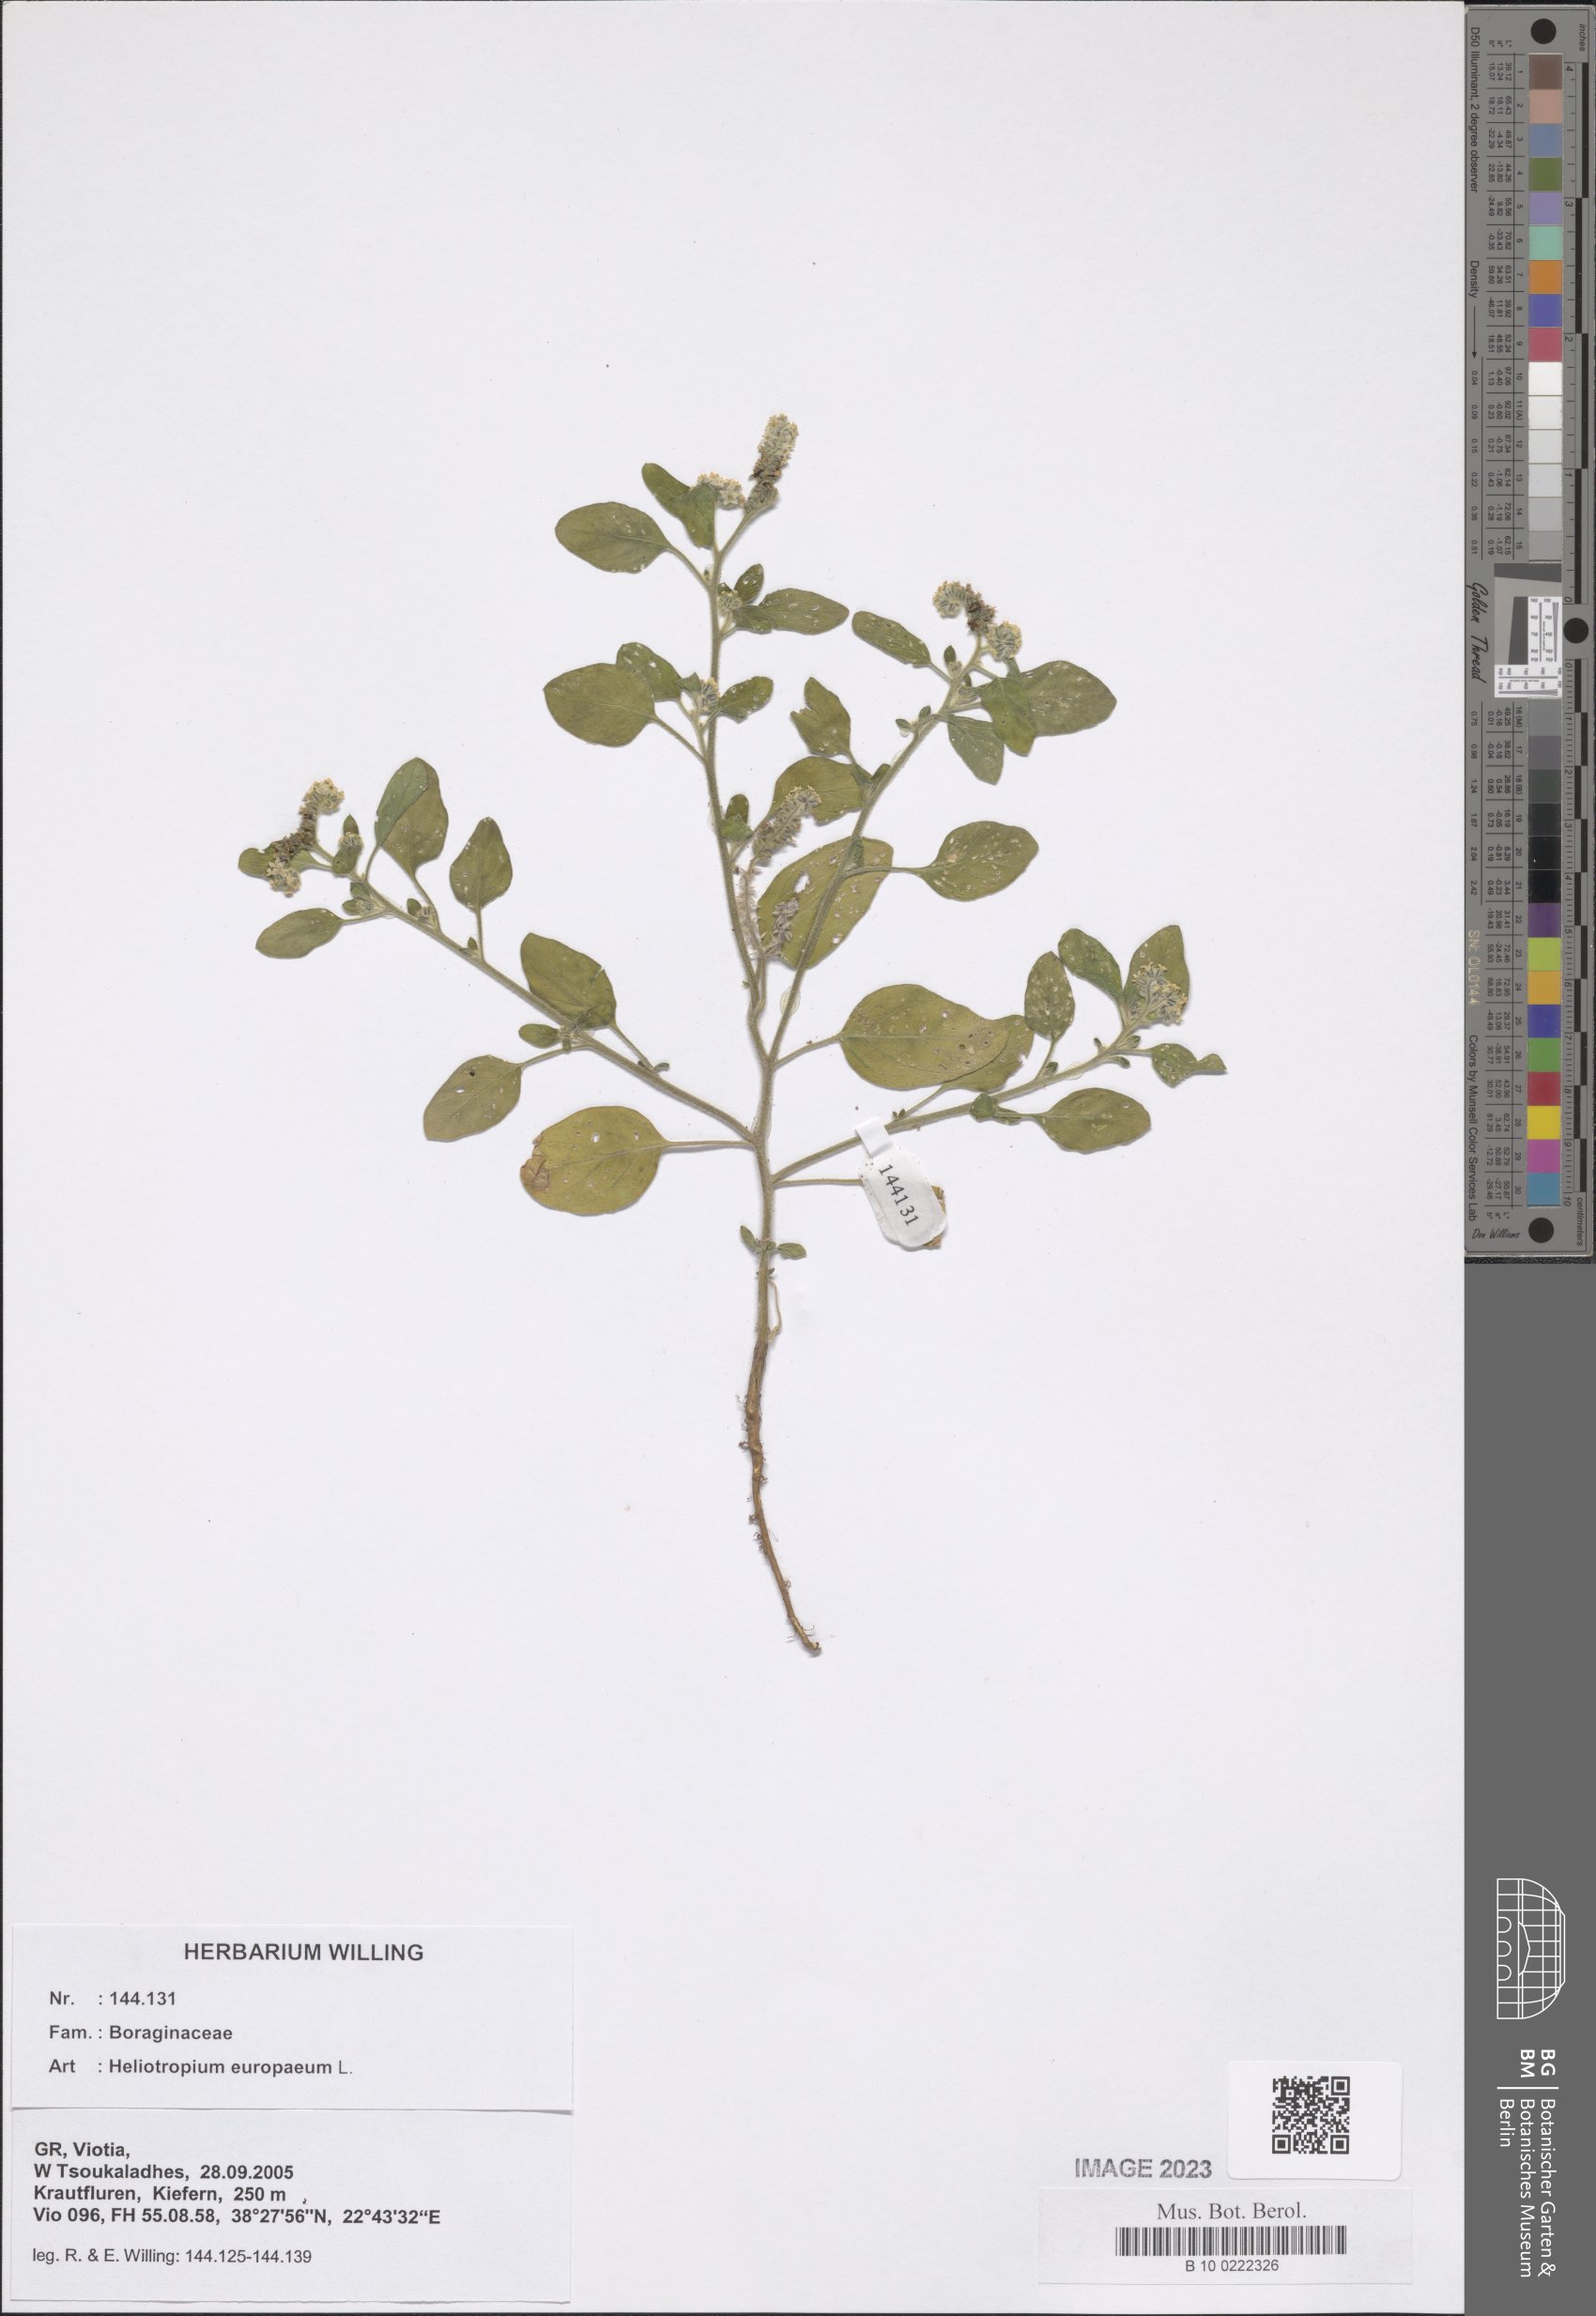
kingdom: Plantae
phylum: Tracheophyta
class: Magnoliopsida
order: Boraginales
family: Heliotropiaceae
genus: Heliotropium
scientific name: Heliotropium europaeum
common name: European heliotrope
